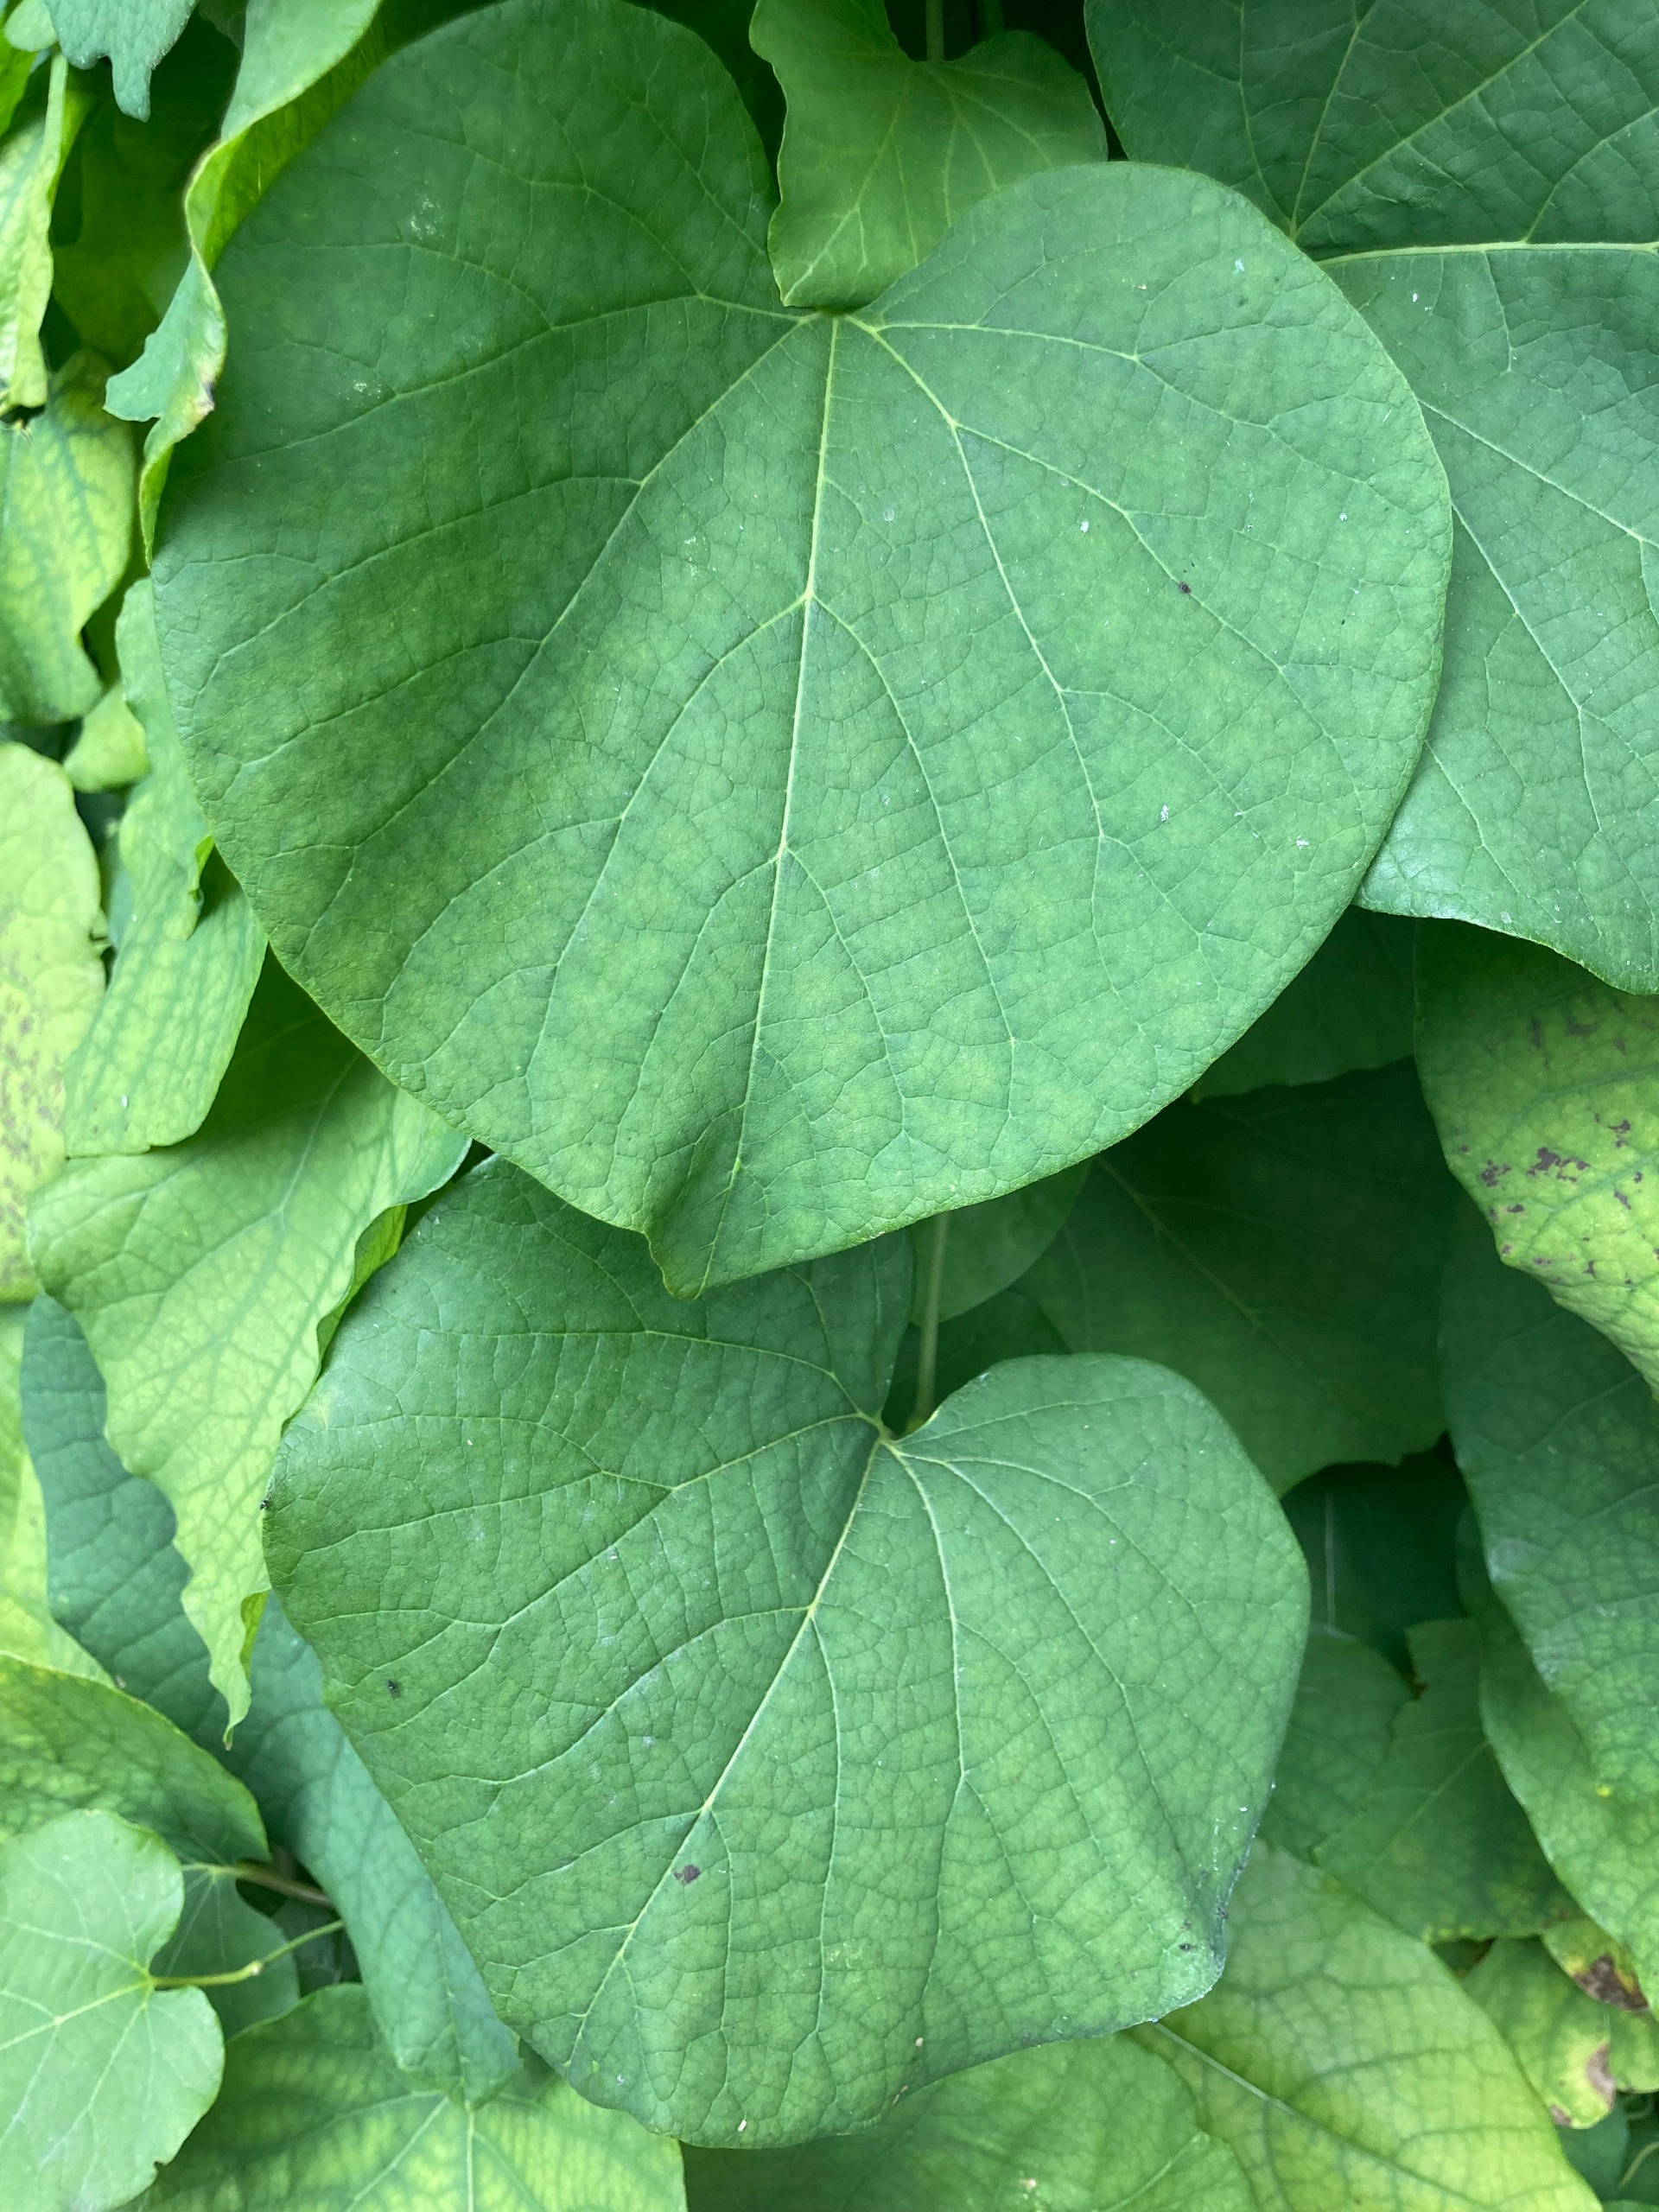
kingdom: Plantae
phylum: Tracheophyta
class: Magnoliopsida
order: Piperales
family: Aristolochiaceae
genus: Isotrema
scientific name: Isotrema macrophyllum
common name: Tobakspibeplante
